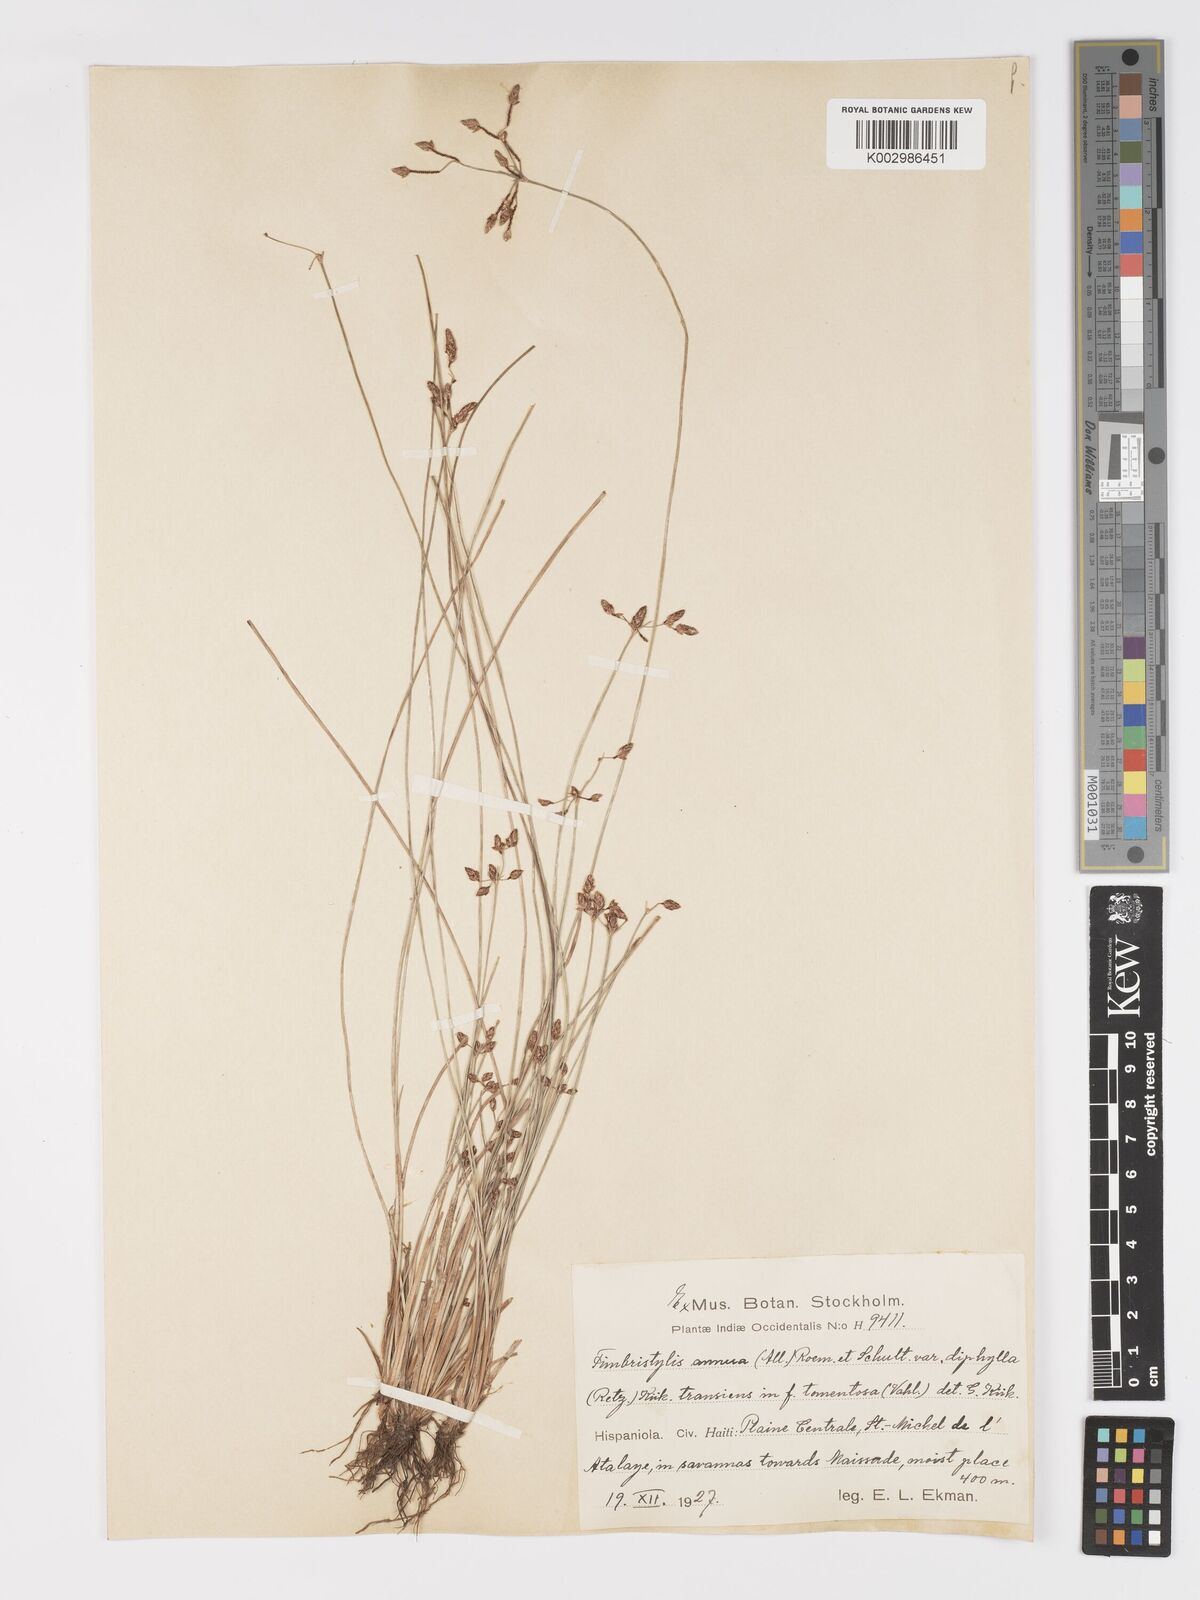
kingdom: Plantae
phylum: Tracheophyta
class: Liliopsida
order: Poales
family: Cyperaceae
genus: Fimbristylis
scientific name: Fimbristylis dichotoma
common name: Forked fimbry
